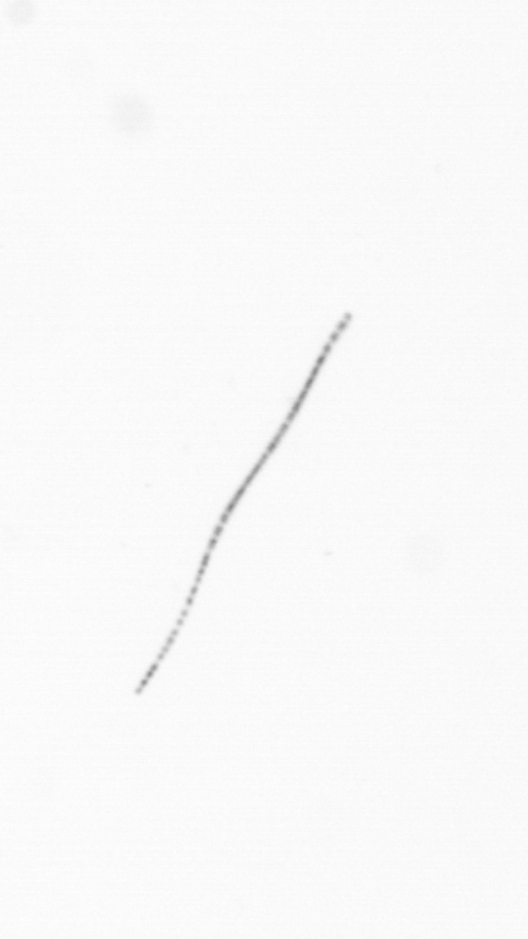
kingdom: Chromista
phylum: Ochrophyta
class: Bacillariophyceae
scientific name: Bacillariophyceae
